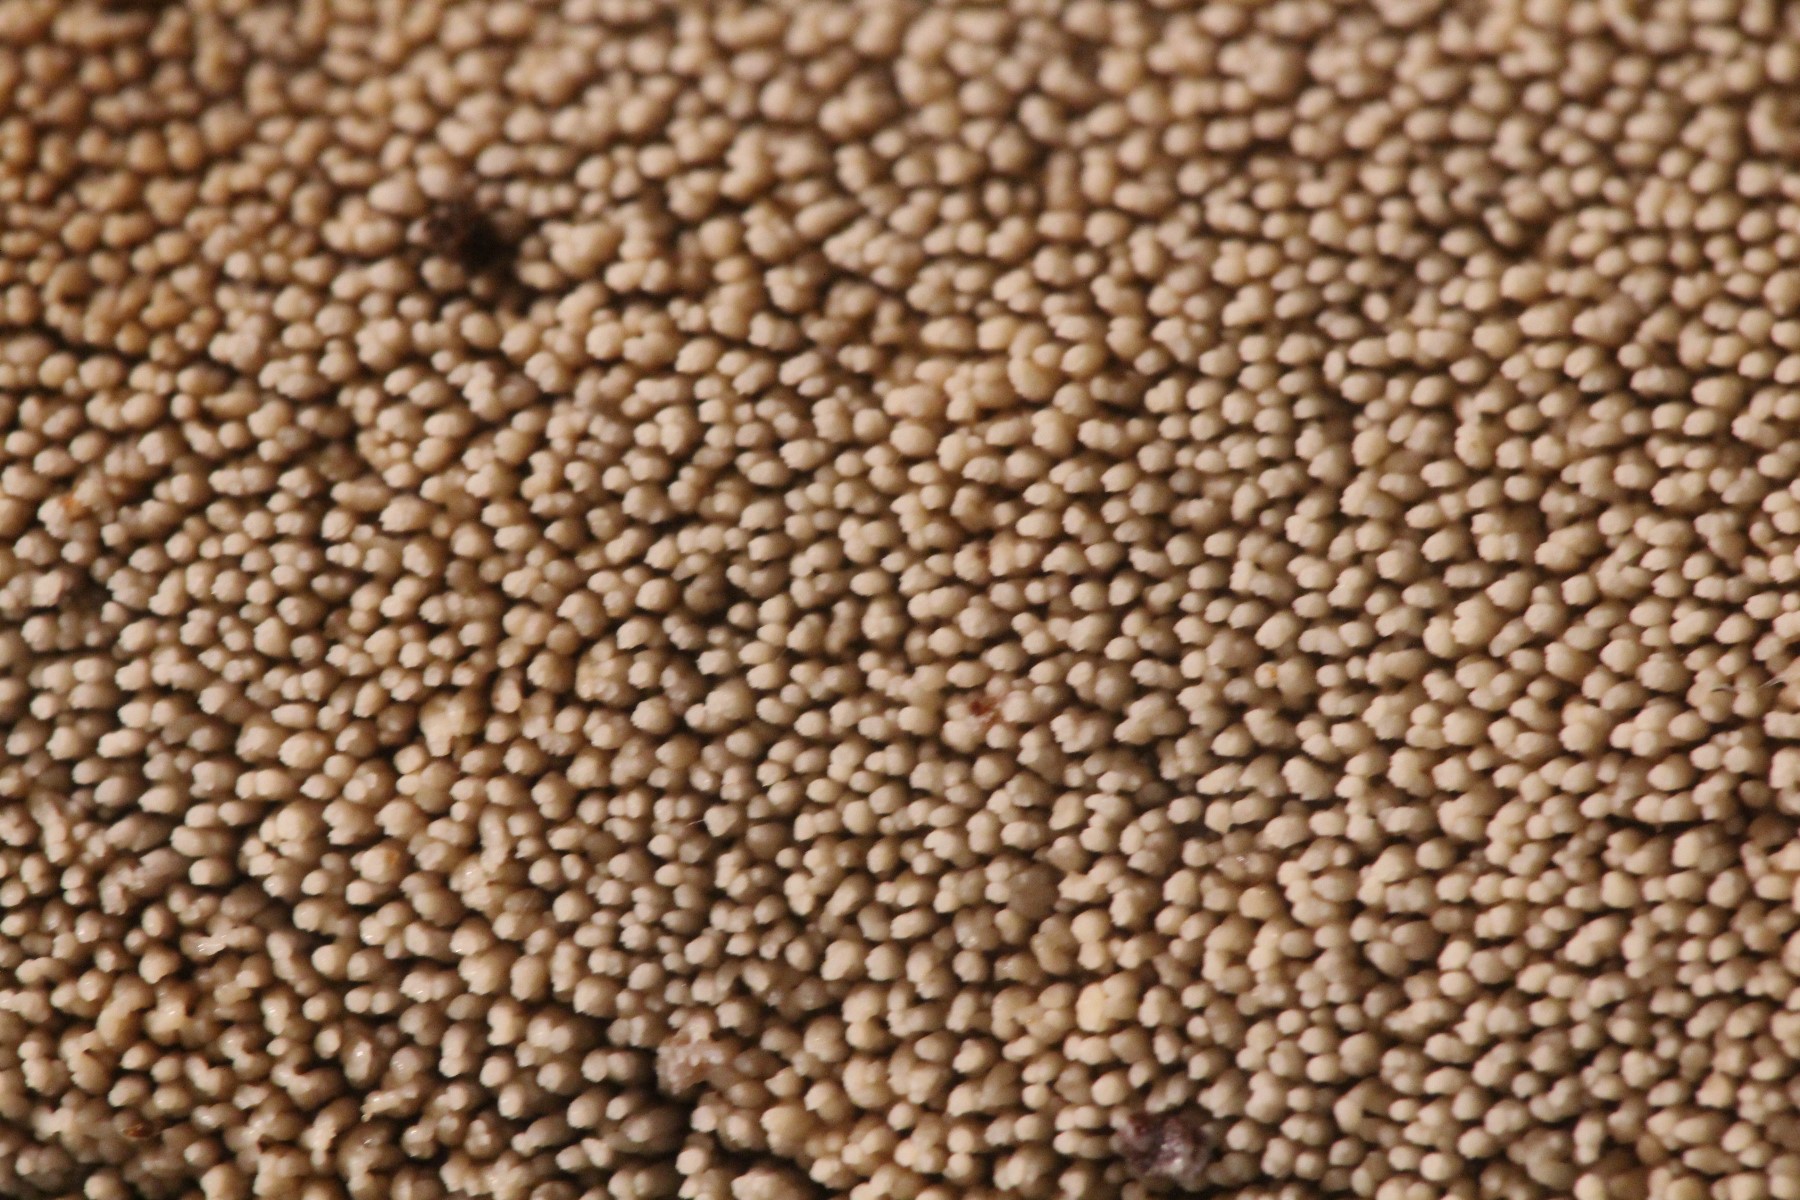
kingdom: Fungi
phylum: Basidiomycota
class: Agaricomycetes
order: Corticiales
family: Corticiaceae
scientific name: Corticiaceae
